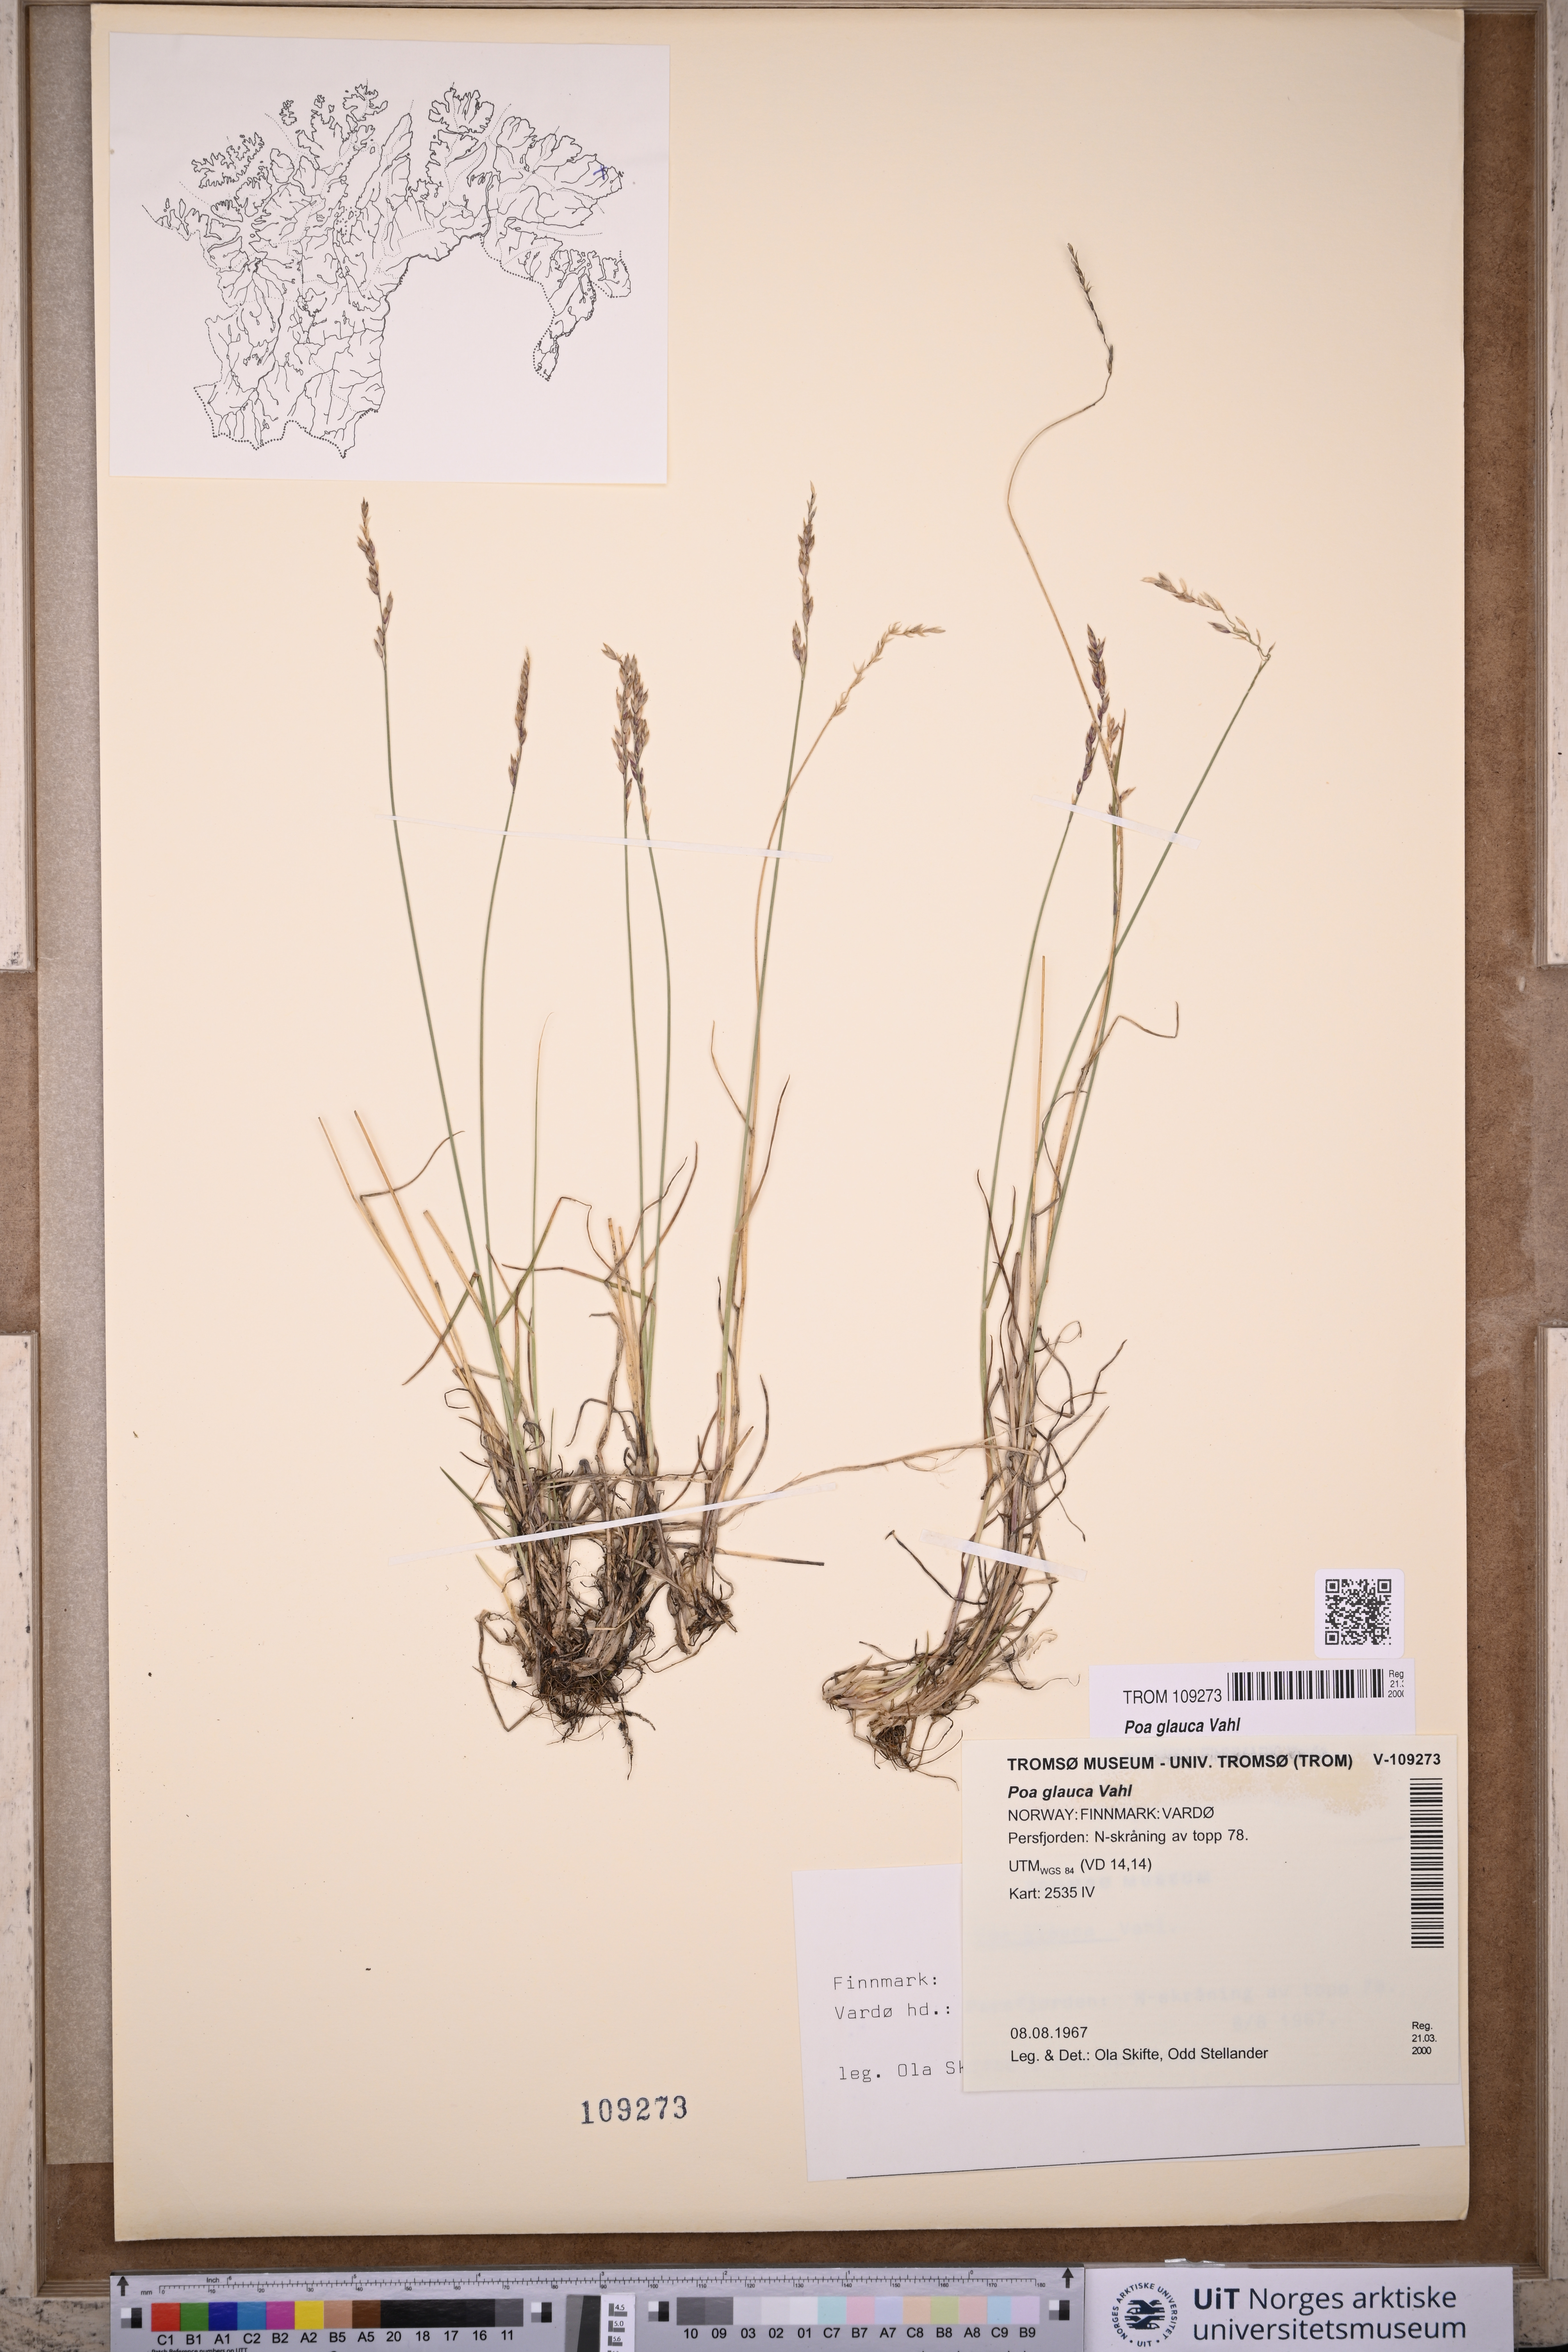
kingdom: Plantae
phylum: Tracheophyta
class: Liliopsida
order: Poales
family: Poaceae
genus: Poa
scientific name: Poa glauca
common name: Glaucous bluegrass
